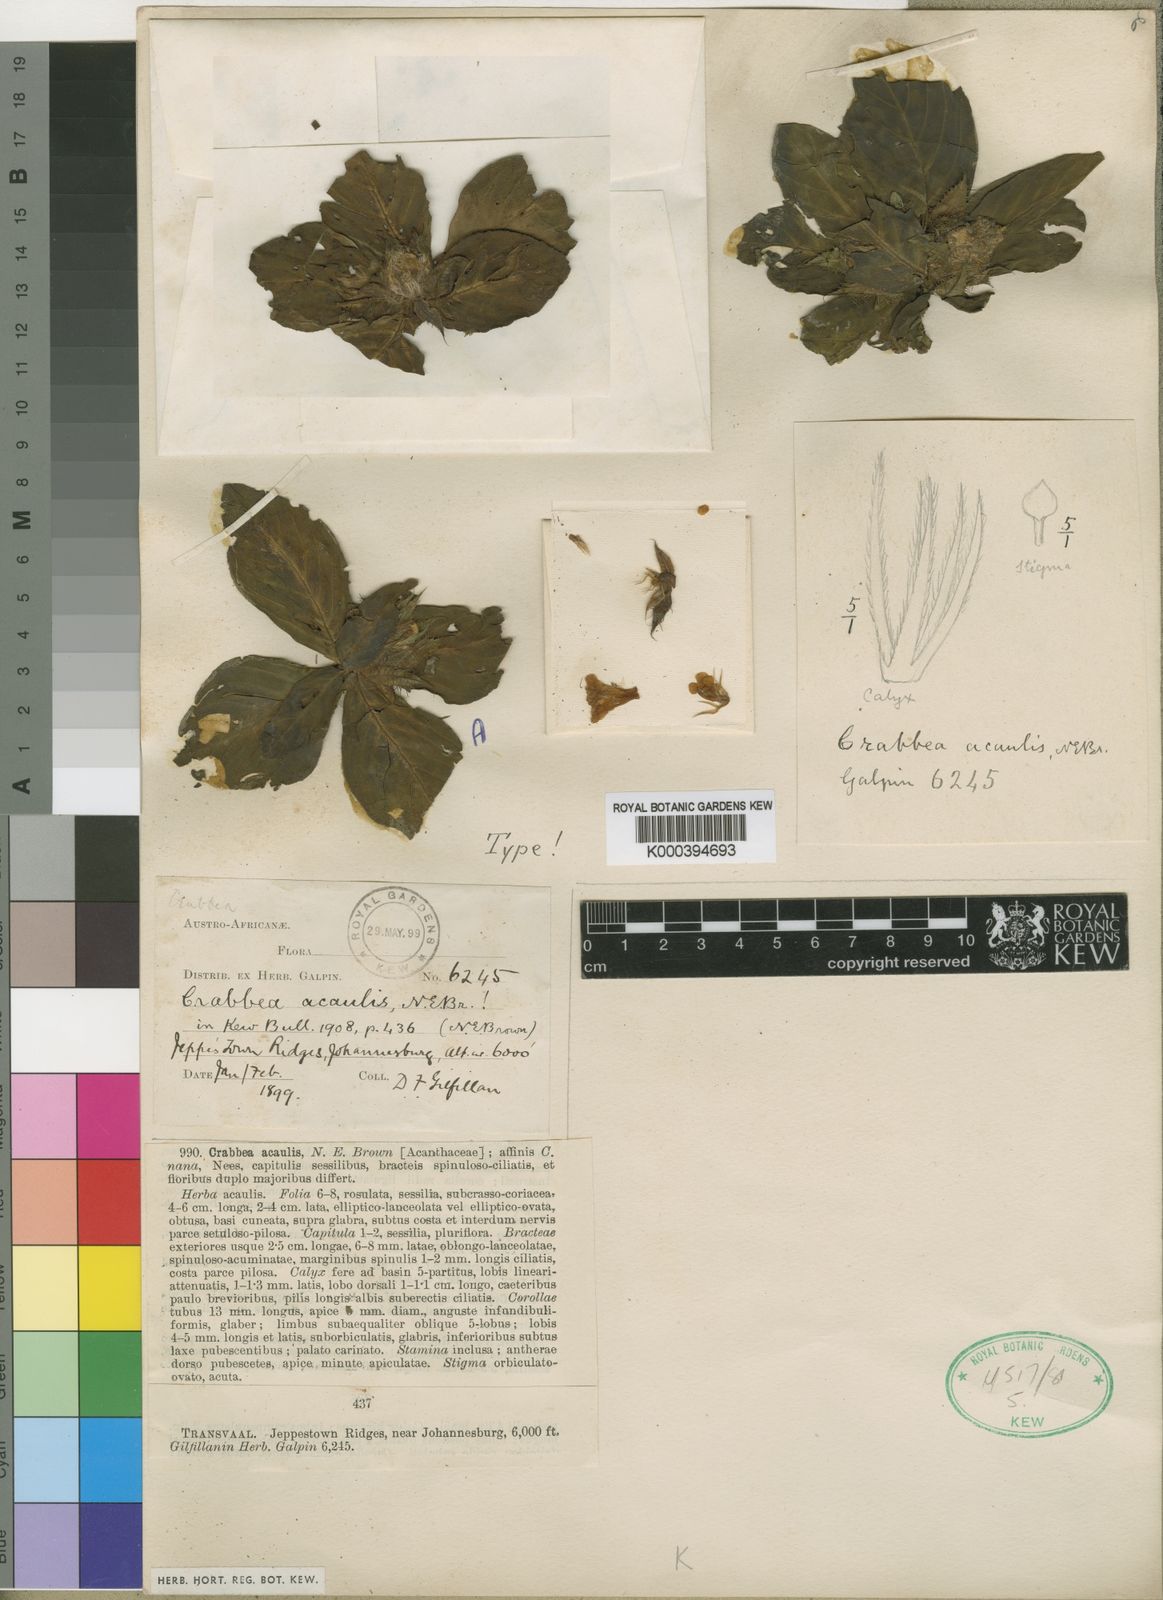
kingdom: Plantae
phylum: Tracheophyta
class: Magnoliopsida
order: Lamiales
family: Acanthaceae
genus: Crabbea
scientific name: Crabbea acaulis
